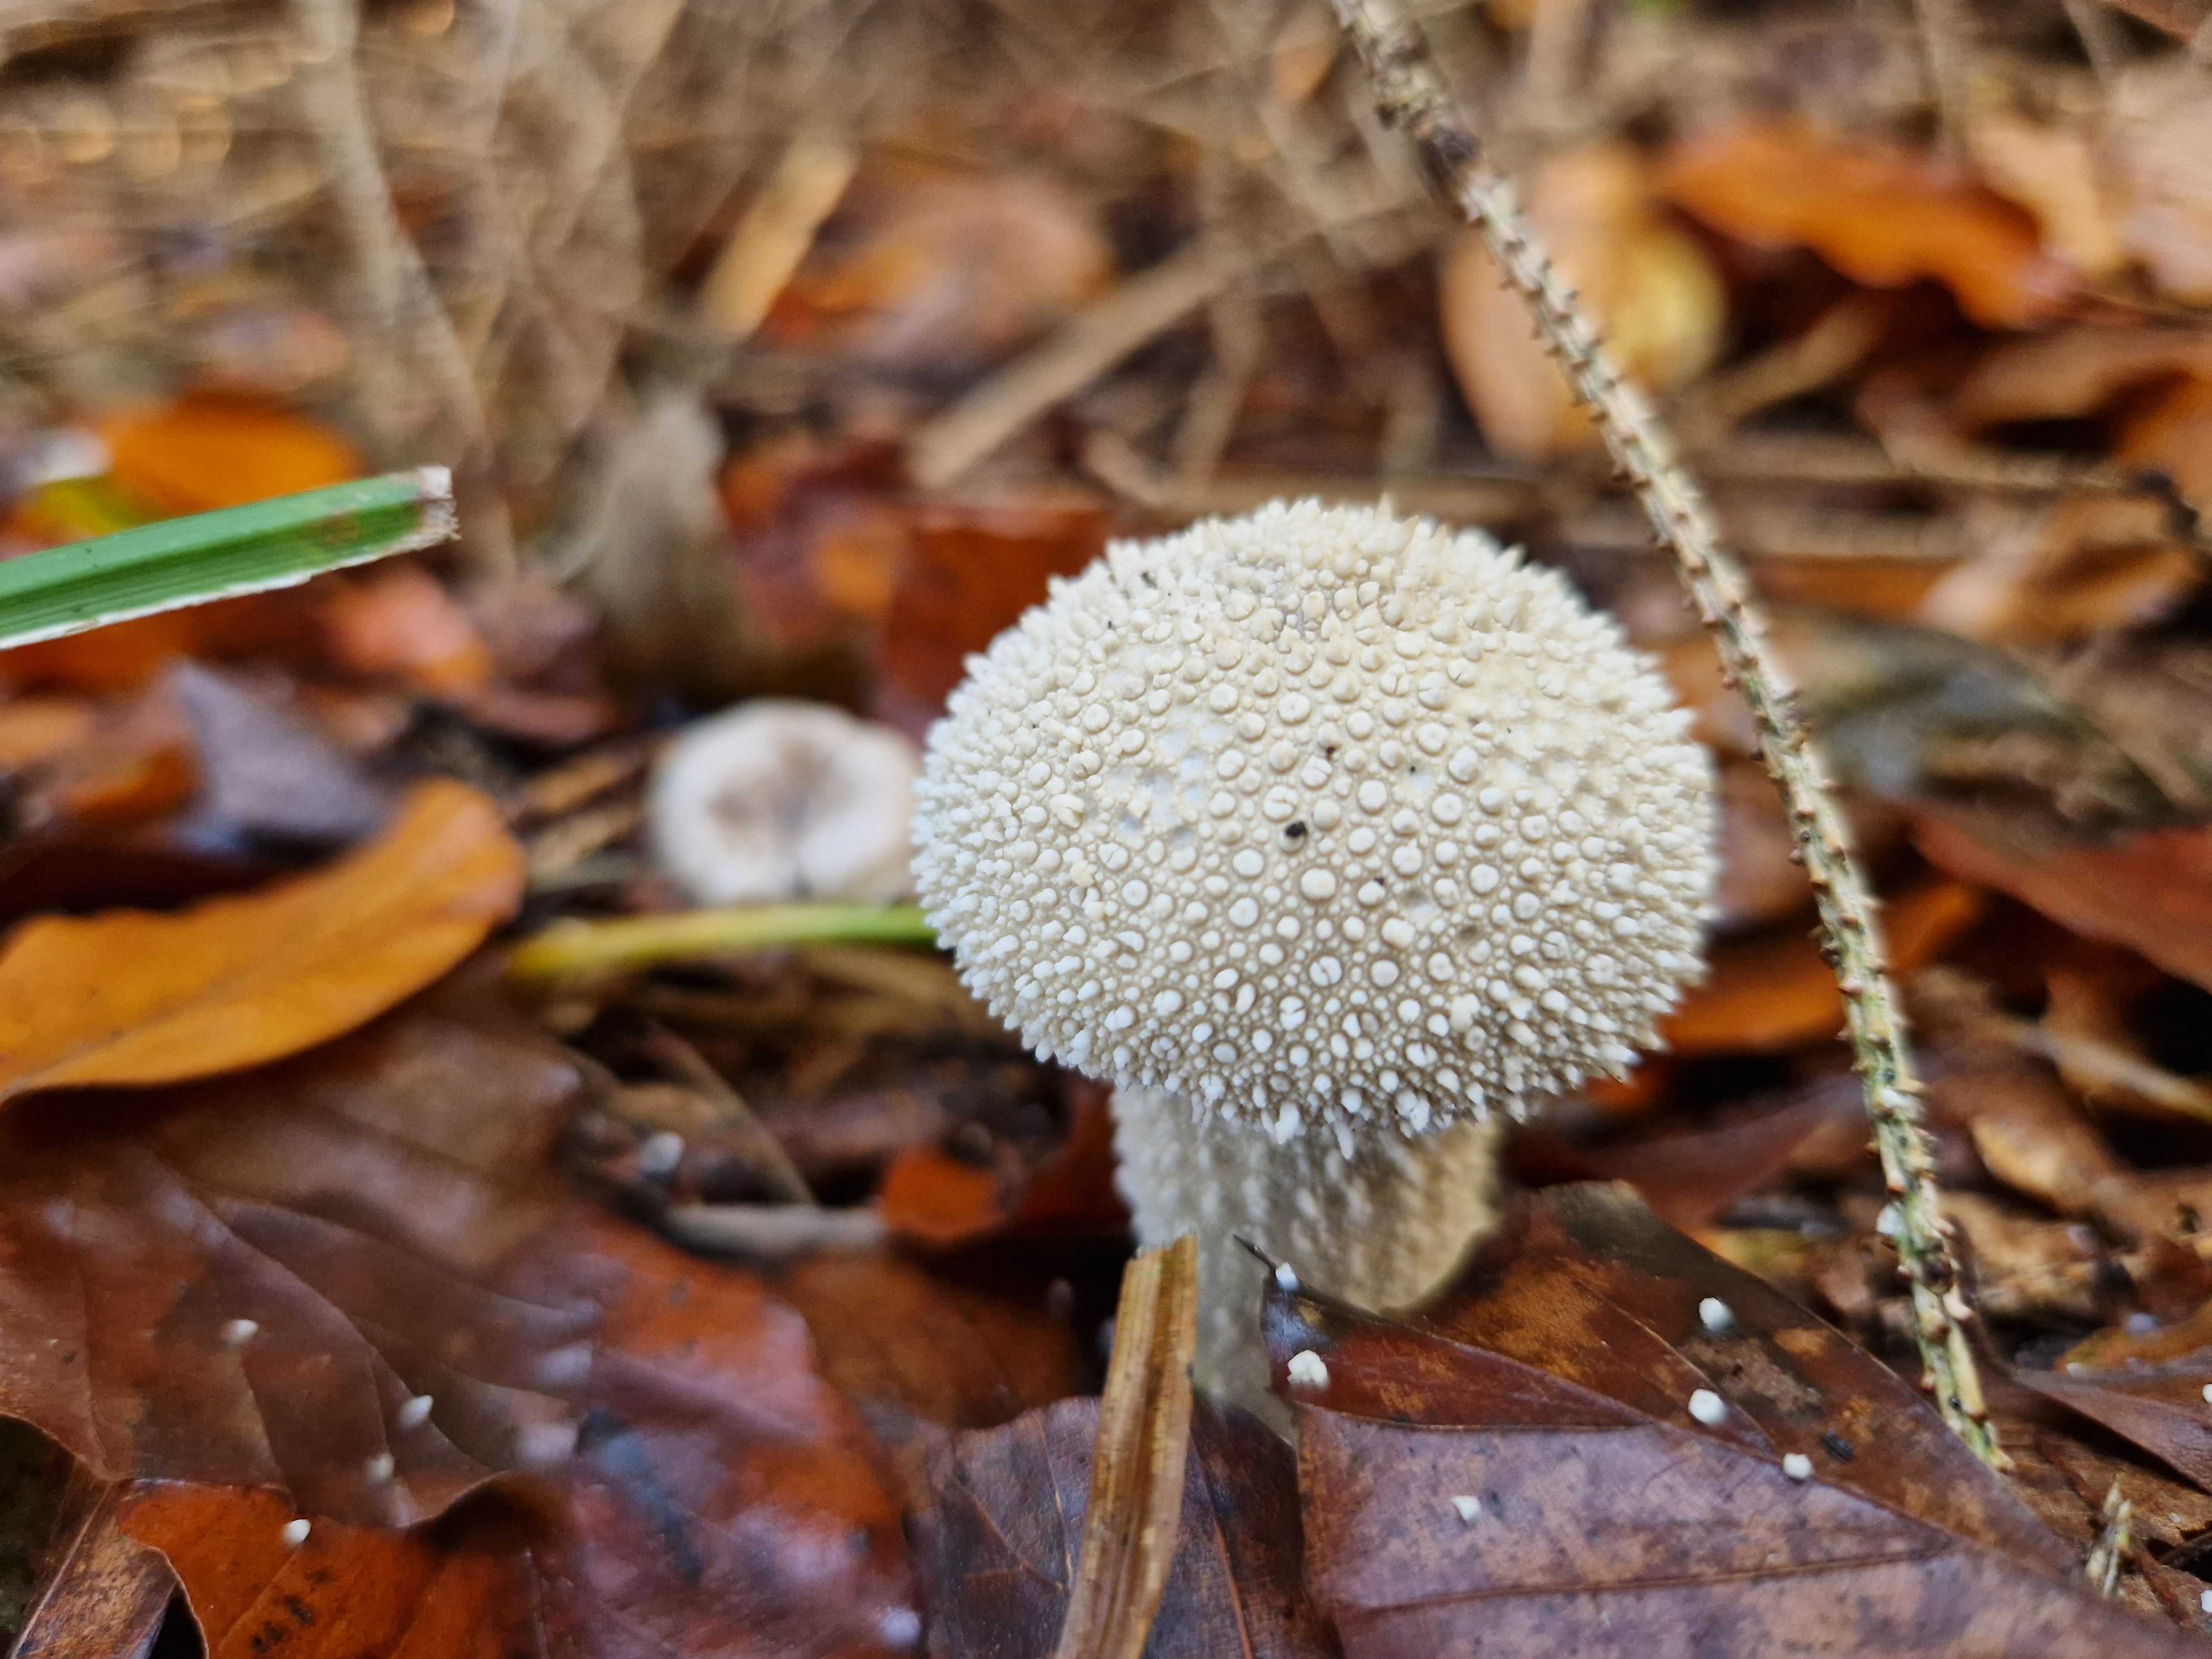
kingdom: Fungi
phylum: Basidiomycota
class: Agaricomycetes
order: Agaricales
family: Lycoperdaceae
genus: Lycoperdon
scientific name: Lycoperdon perlatum
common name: krystal-støvbold
